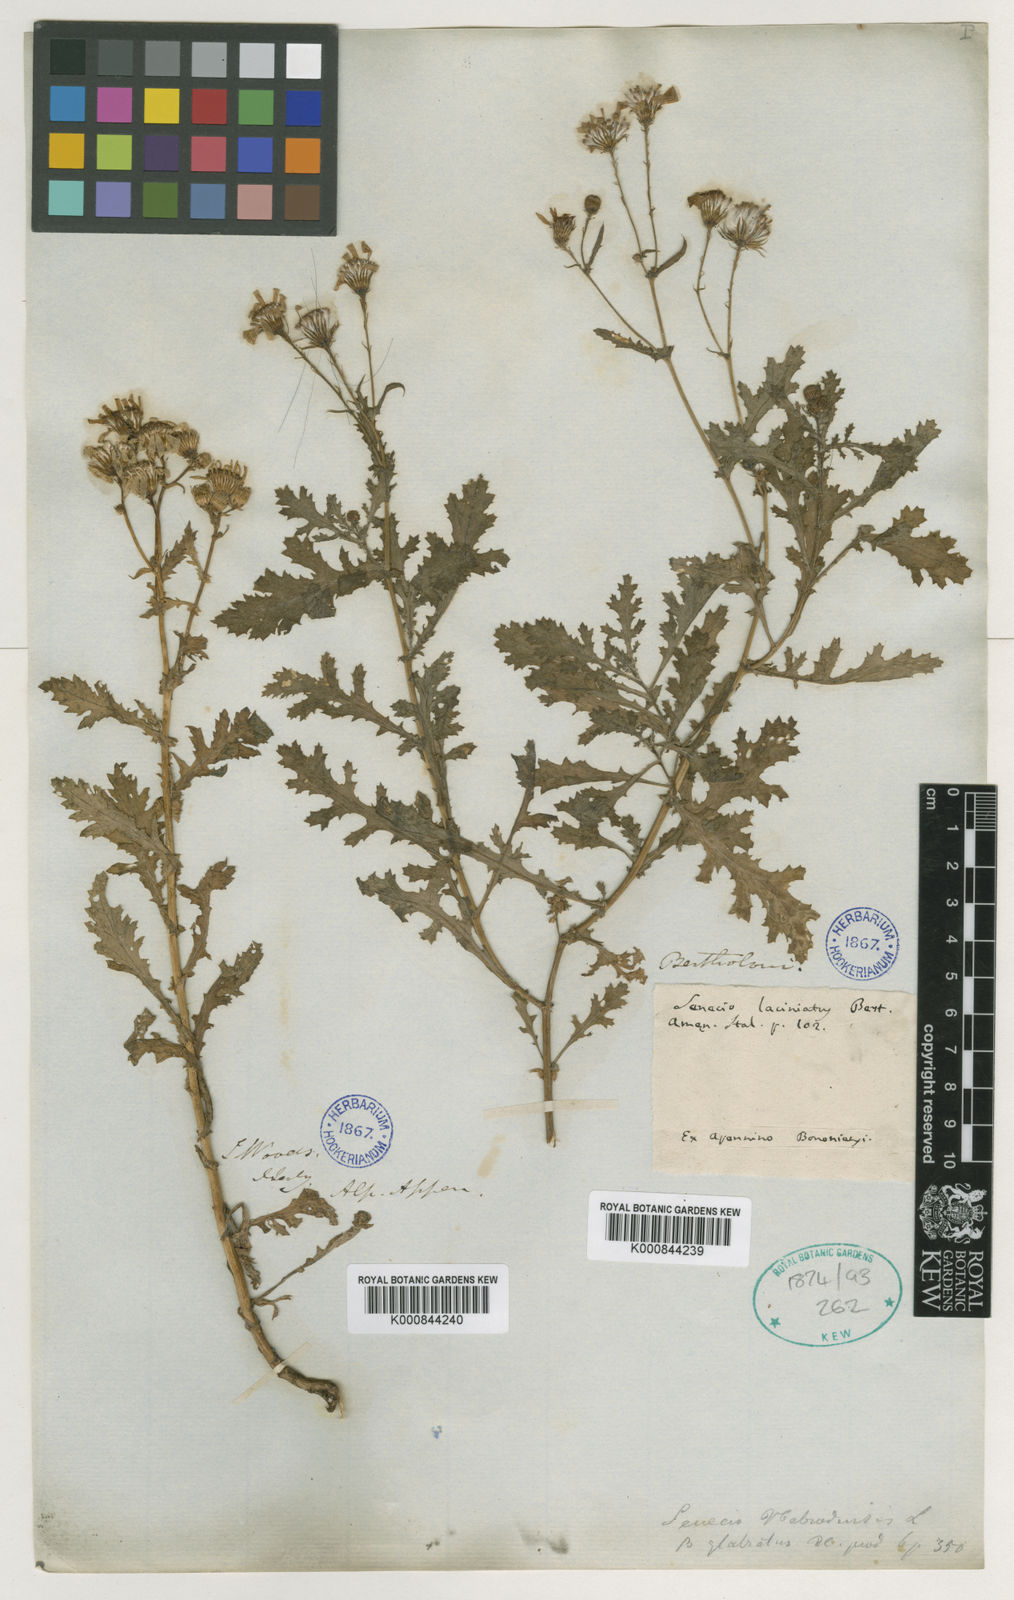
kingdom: Plantae
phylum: Tracheophyta
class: Magnoliopsida
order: Asterales
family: Asteraceae
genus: Senecio
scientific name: Senecio squalidus
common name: Oxford ragwort
